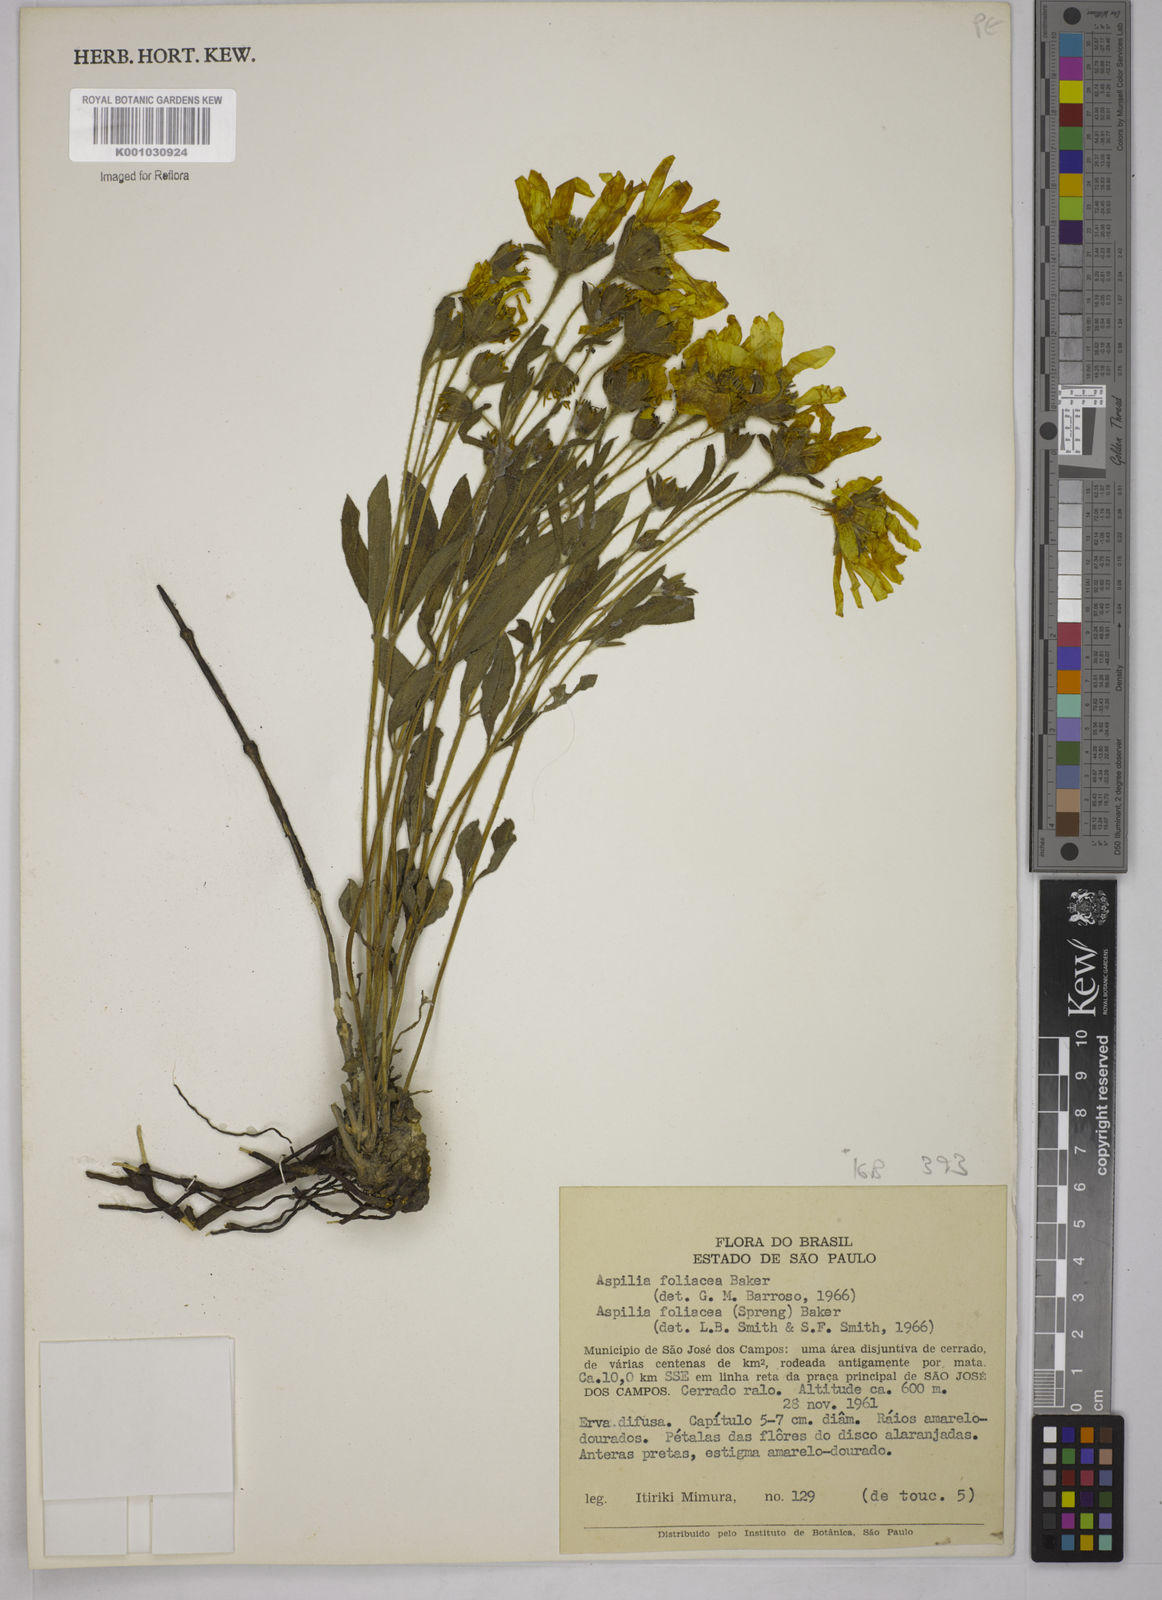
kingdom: Plantae
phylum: Tracheophyta
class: Magnoliopsida
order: Asterales
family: Asteraceae
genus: Wedelia
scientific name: Wedelia foliacea
